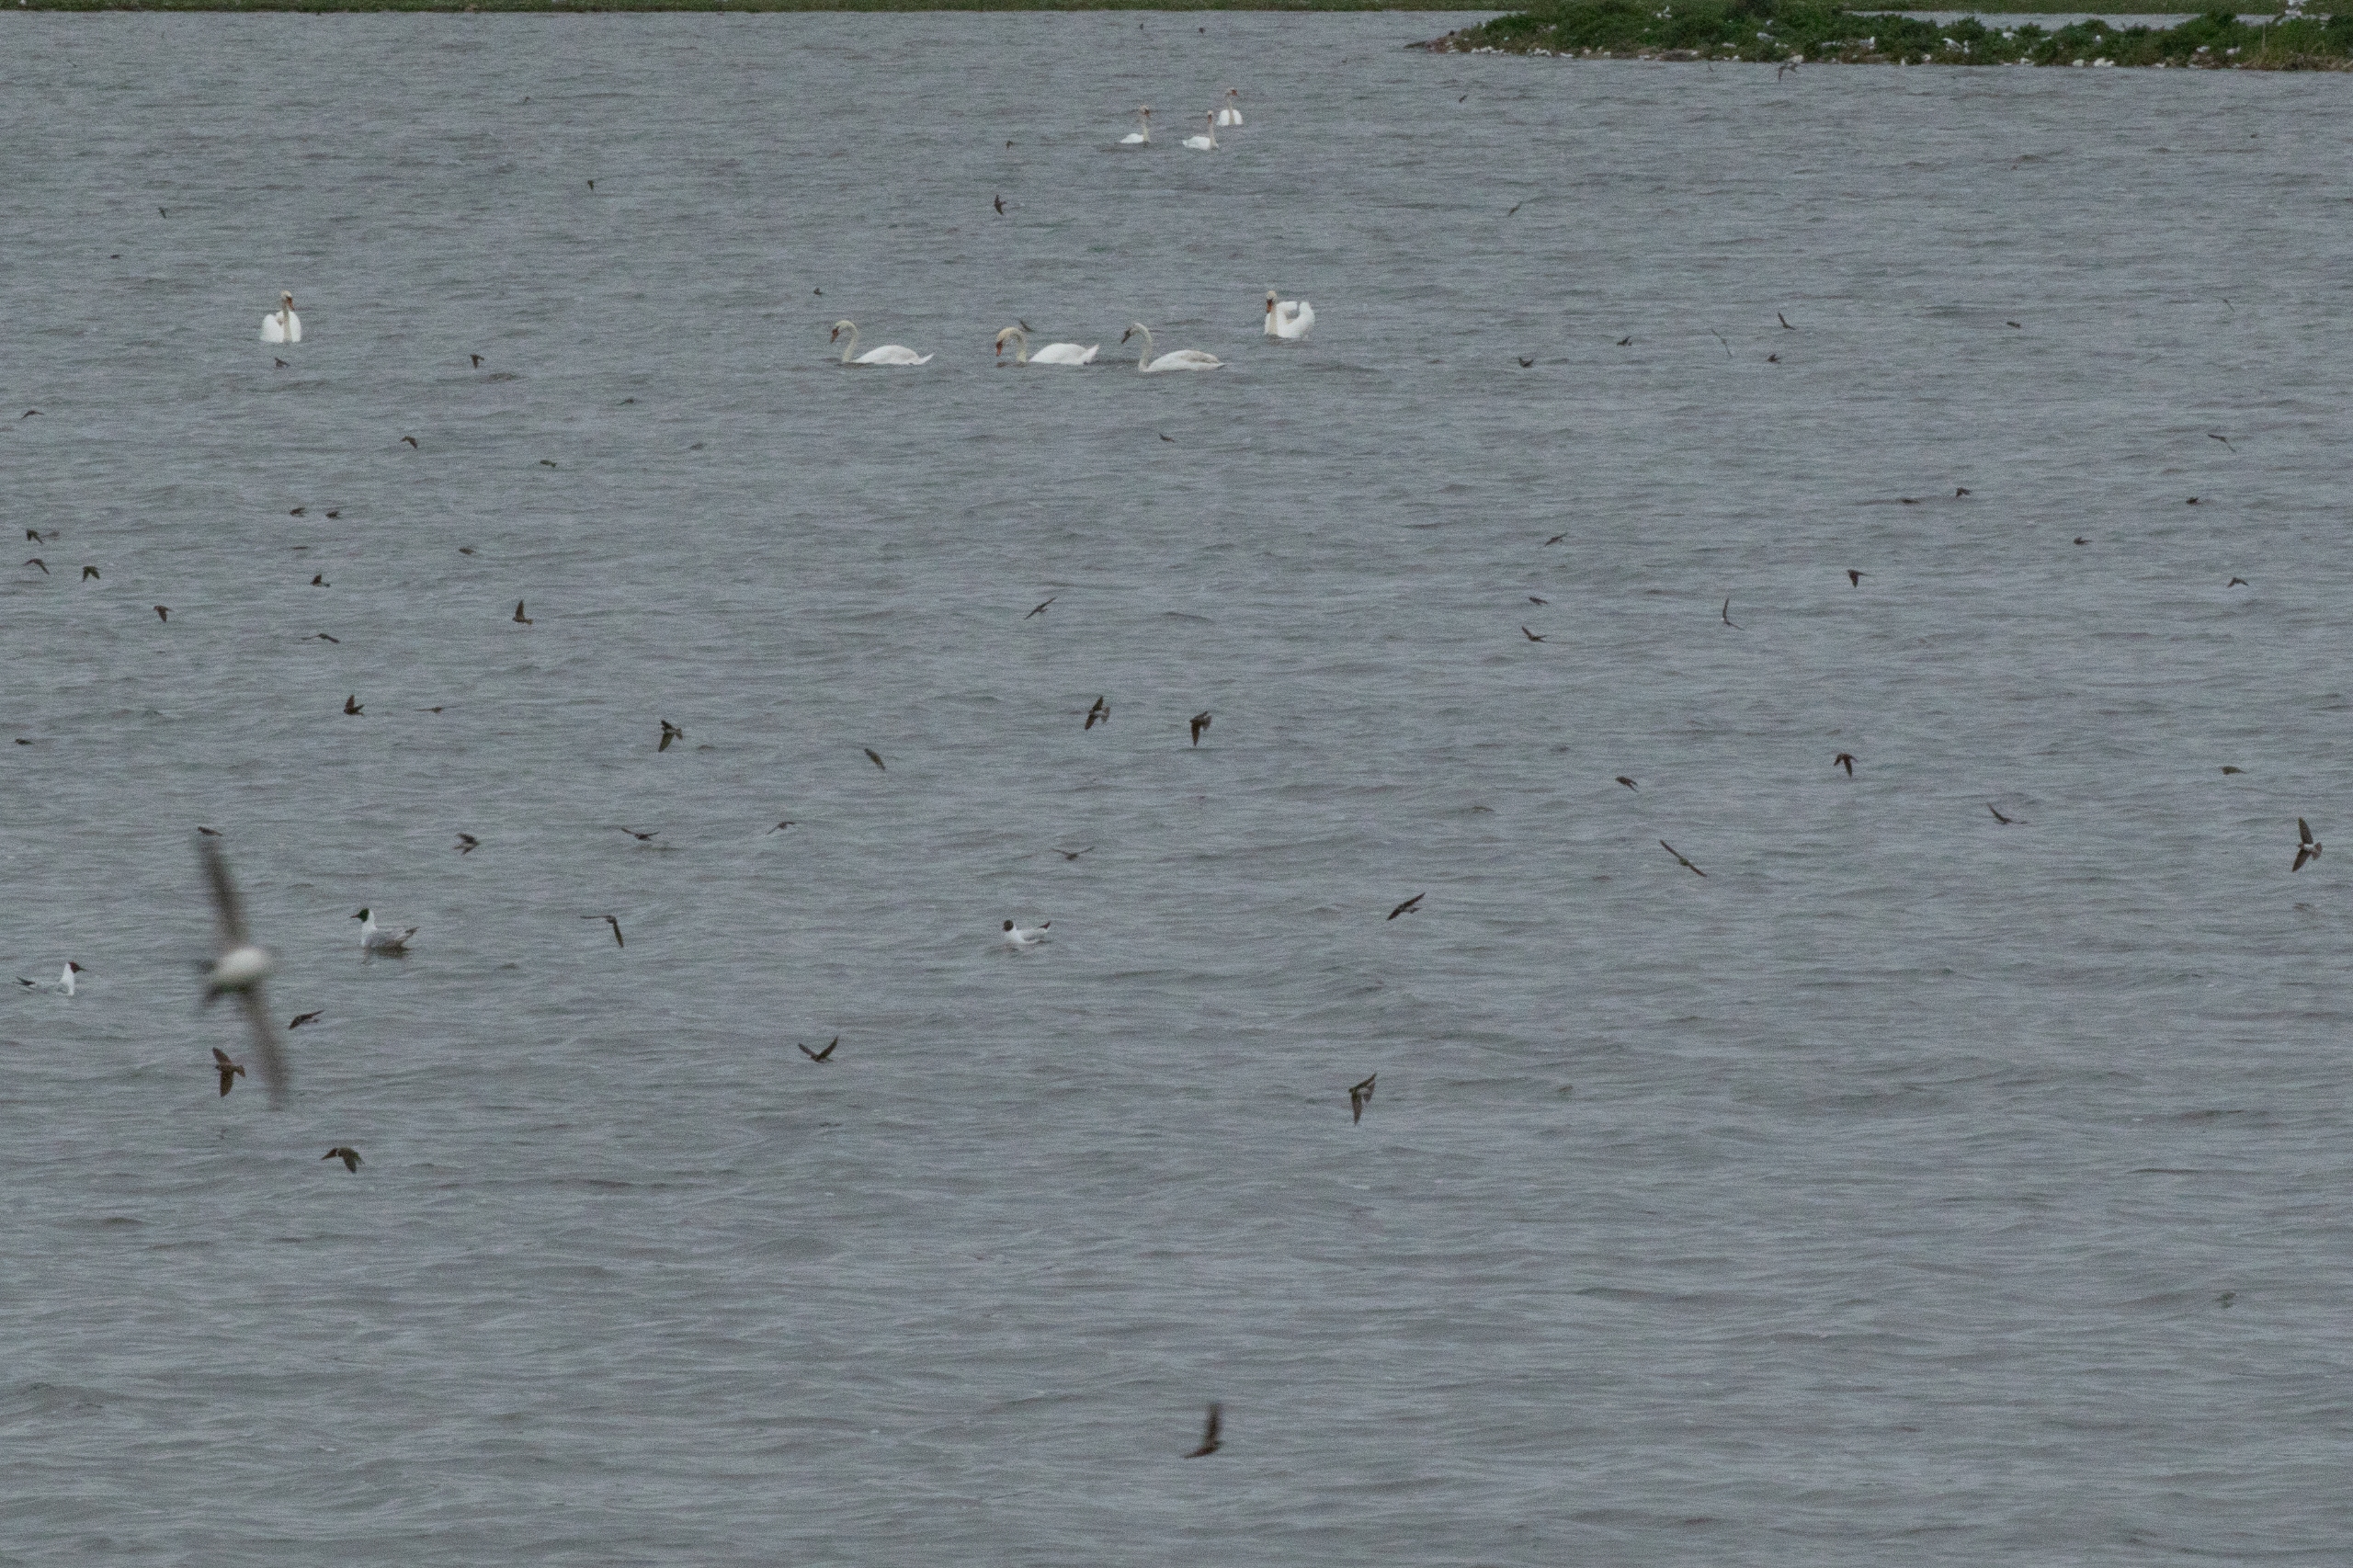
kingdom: Animalia
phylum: Chordata
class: Aves
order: Passeriformes
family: Hirundinidae
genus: Riparia
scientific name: Riparia riparia
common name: Digesvale
